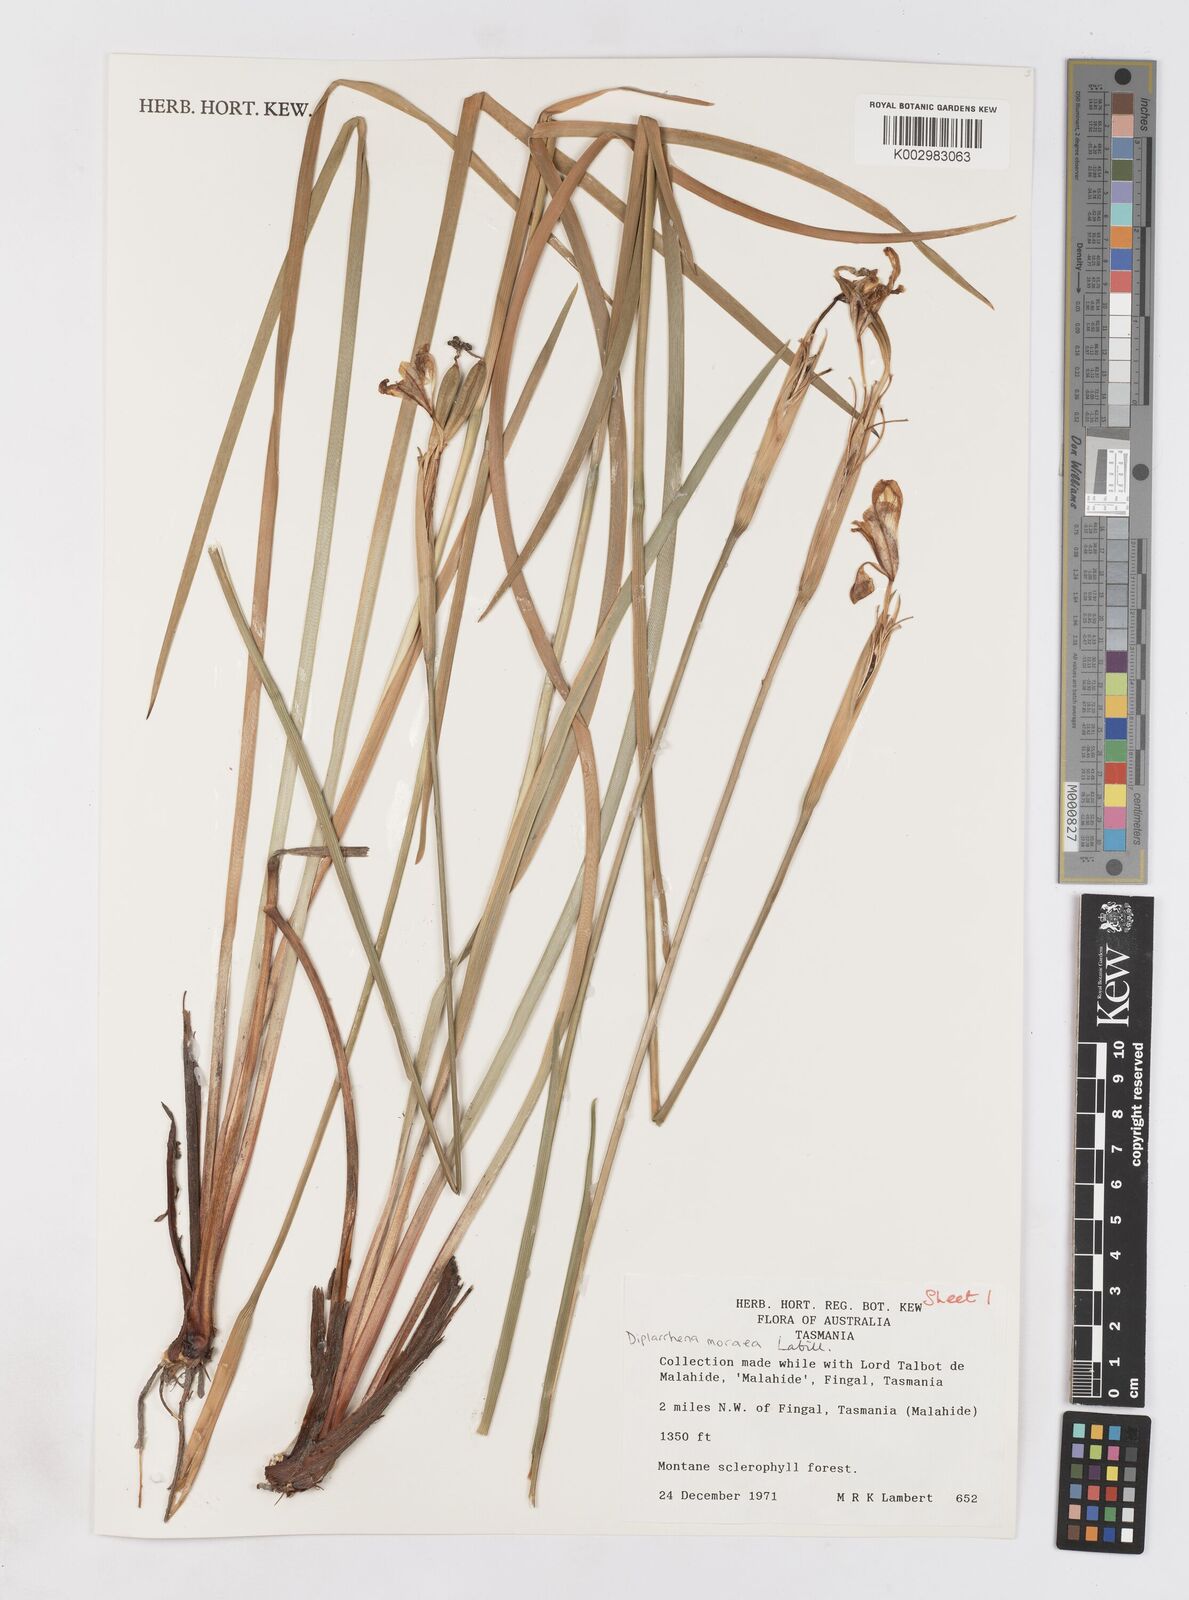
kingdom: Plantae
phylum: Tracheophyta
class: Liliopsida
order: Asparagales
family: Iridaceae
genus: Diplarrena
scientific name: Diplarrena moraea
